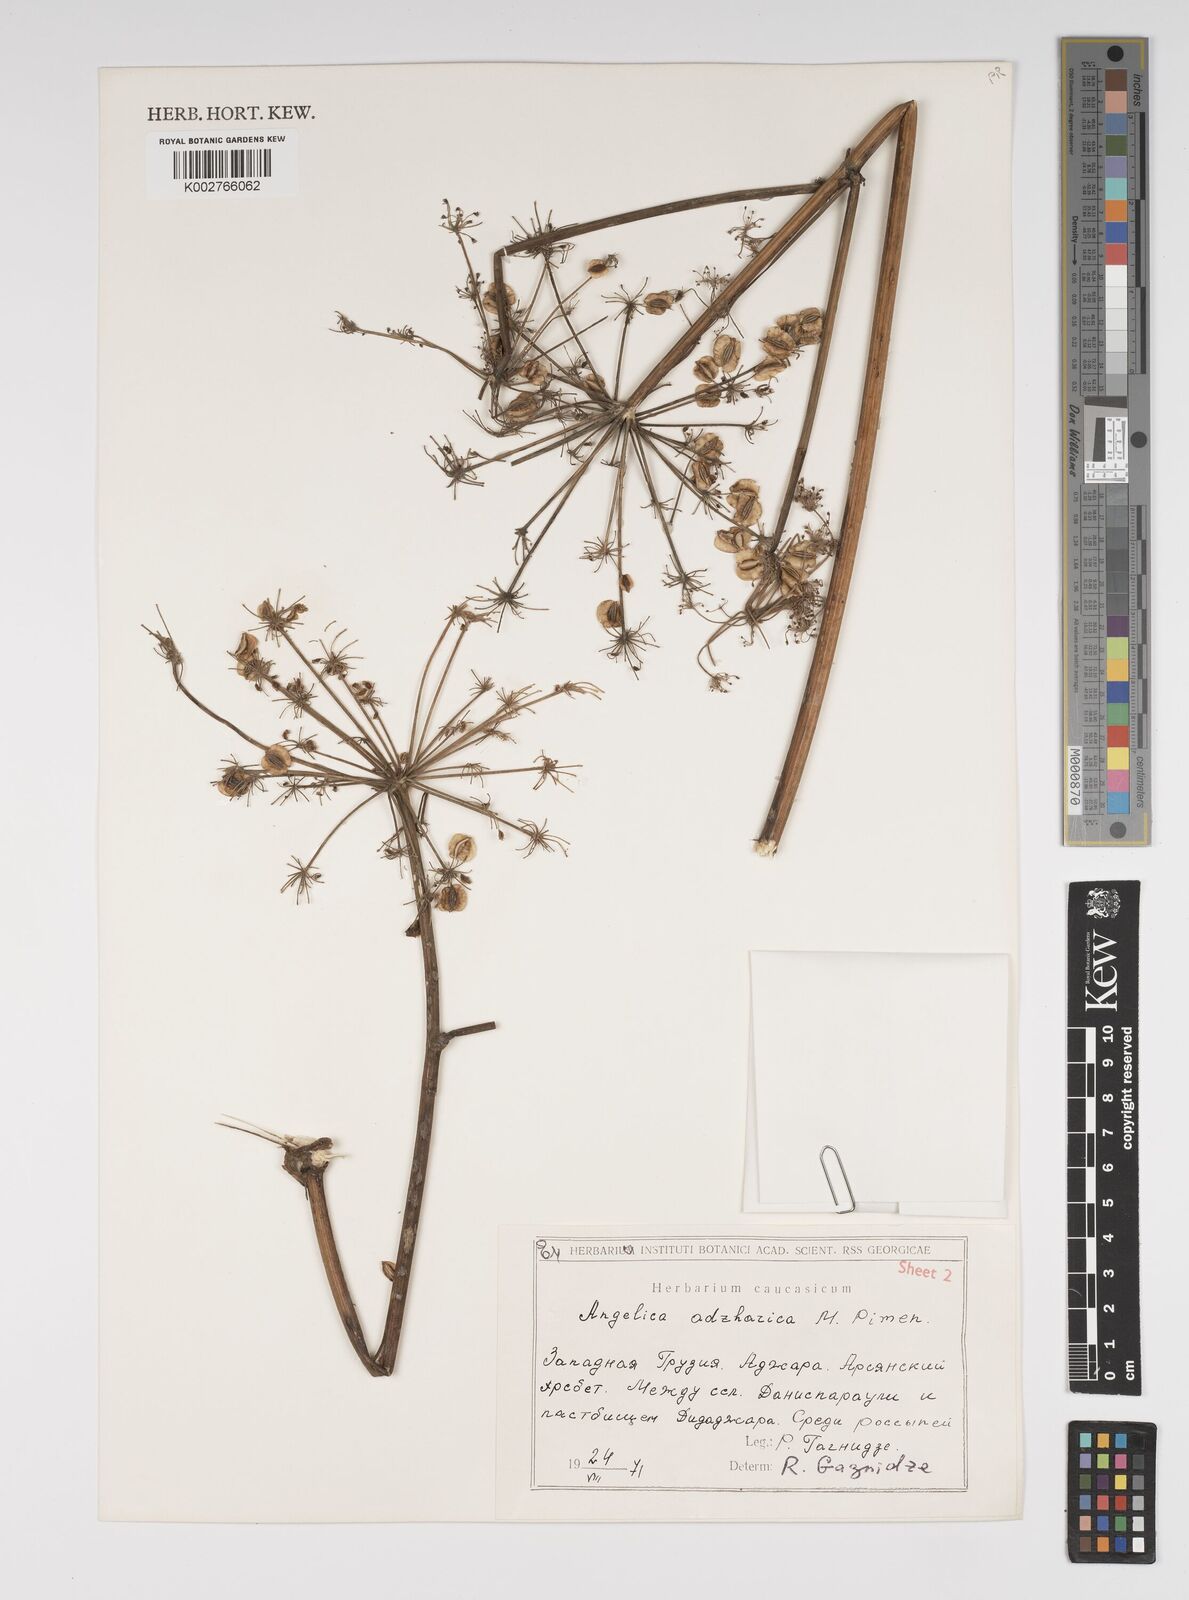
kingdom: Plantae
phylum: Tracheophyta
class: Magnoliopsida
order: Apiales
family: Apiaceae
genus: Angelica
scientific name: Angelica adzharica
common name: Adjarian angelica
